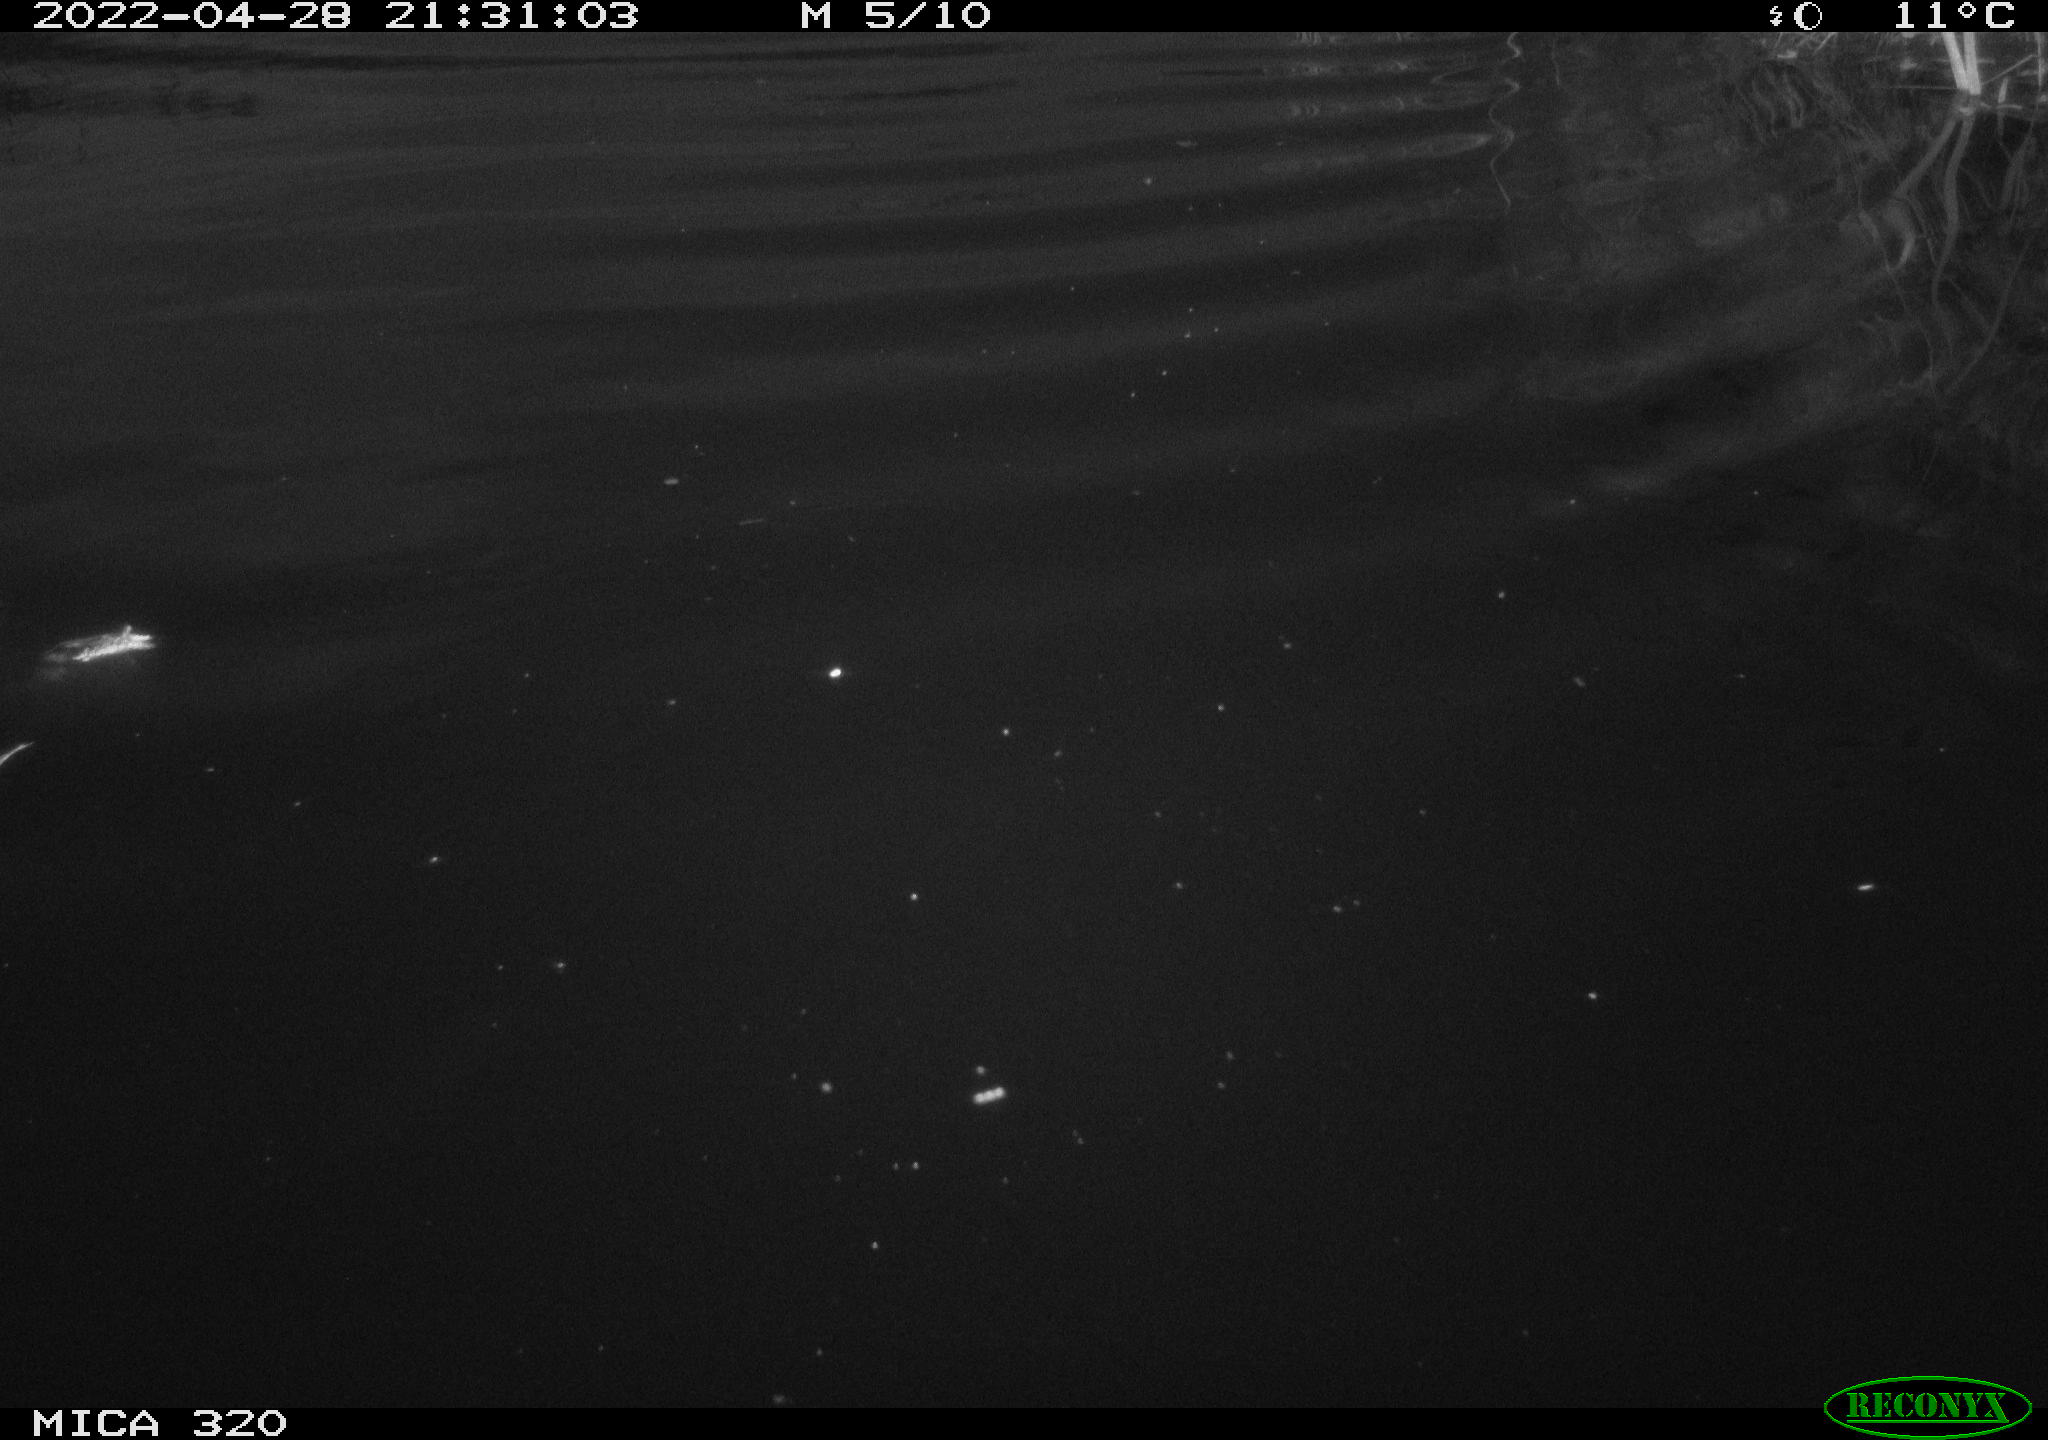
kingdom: Animalia
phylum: Chordata
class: Aves
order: Anseriformes
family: Anatidae
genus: Anas
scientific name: Anas platyrhynchos
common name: Mallard
